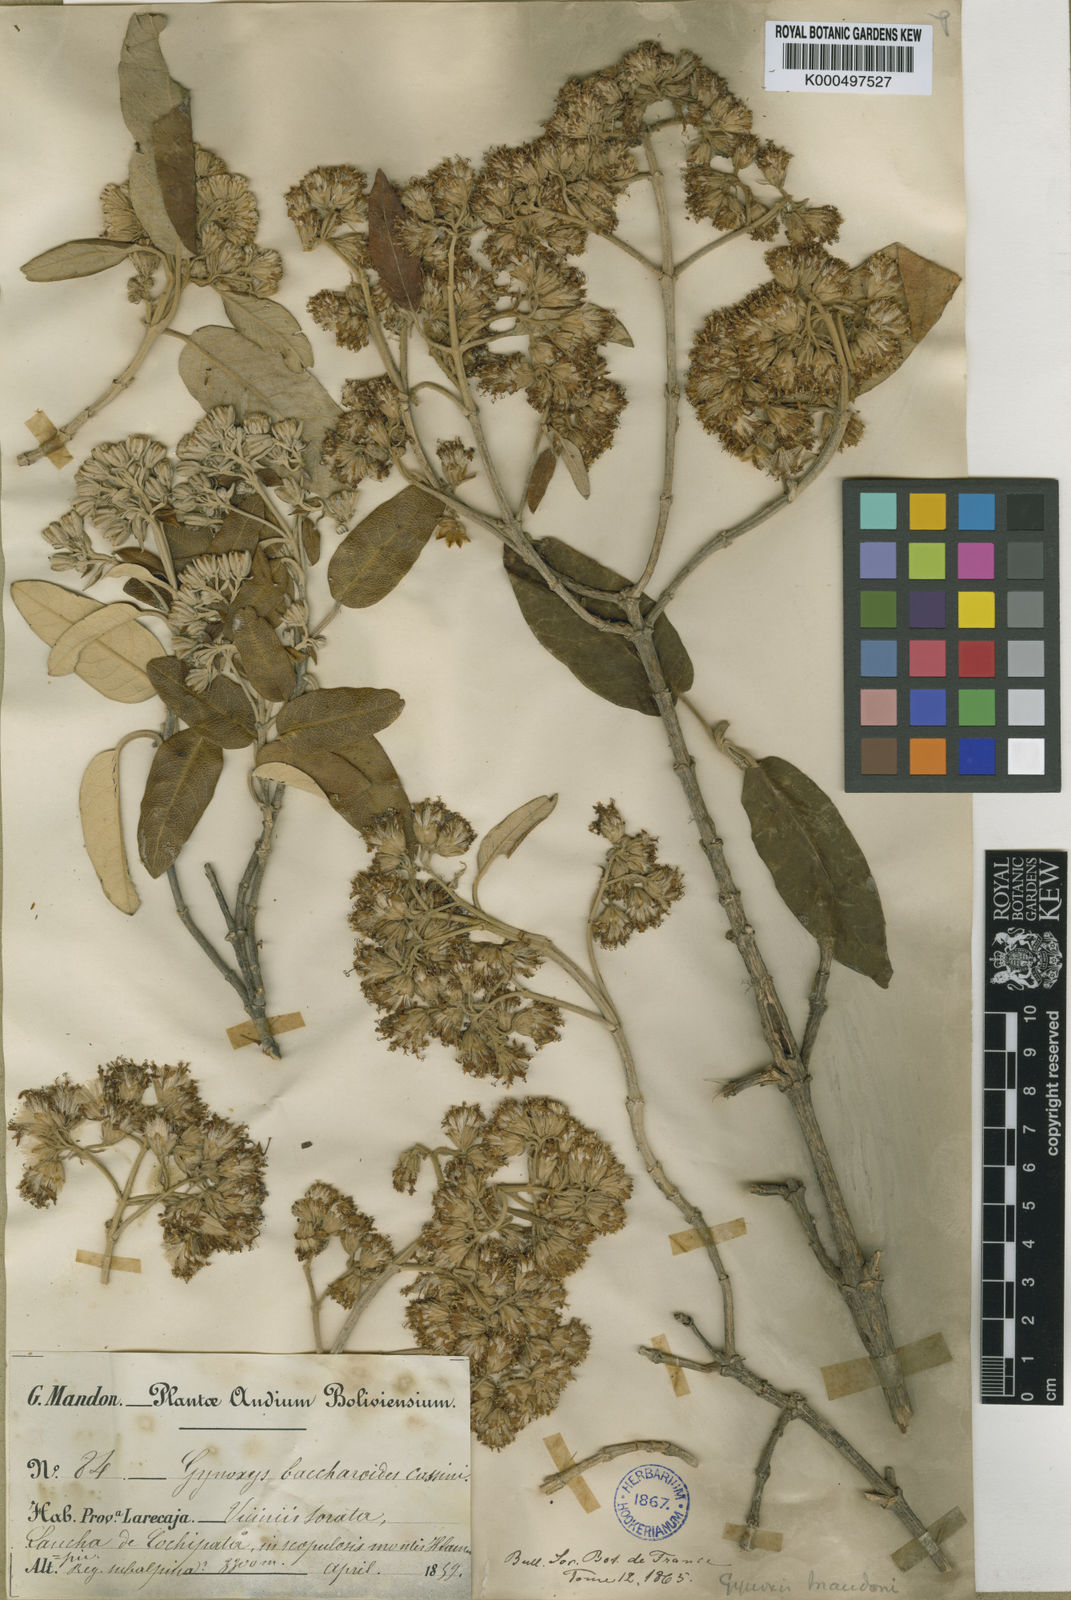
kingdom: Plantae
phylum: Tracheophyta
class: Magnoliopsida
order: Asterales
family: Asteraceae
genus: Gynoxys
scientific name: Gynoxys
